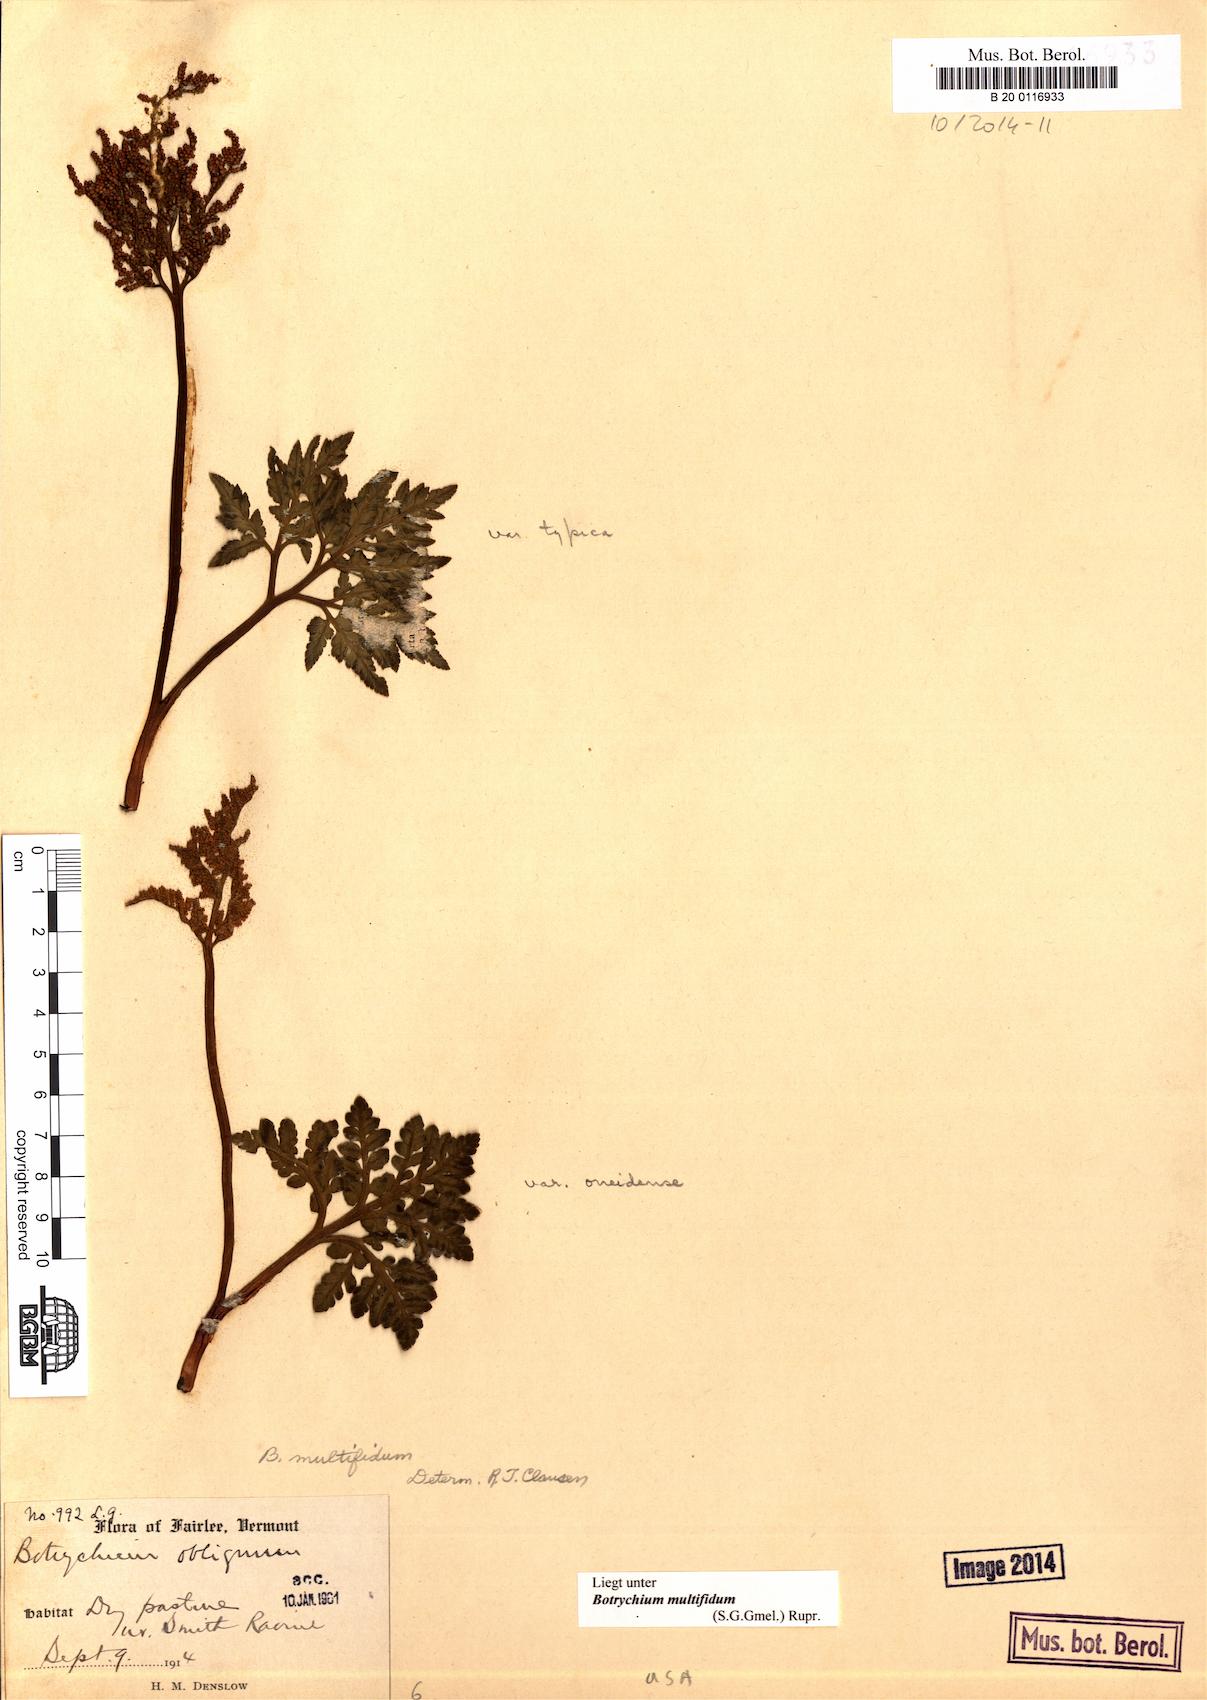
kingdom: Plantae
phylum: Tracheophyta
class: Polypodiopsida
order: Ophioglossales
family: Ophioglossaceae
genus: Sceptridium
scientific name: Sceptridium multifidum
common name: Leathery grape fern
